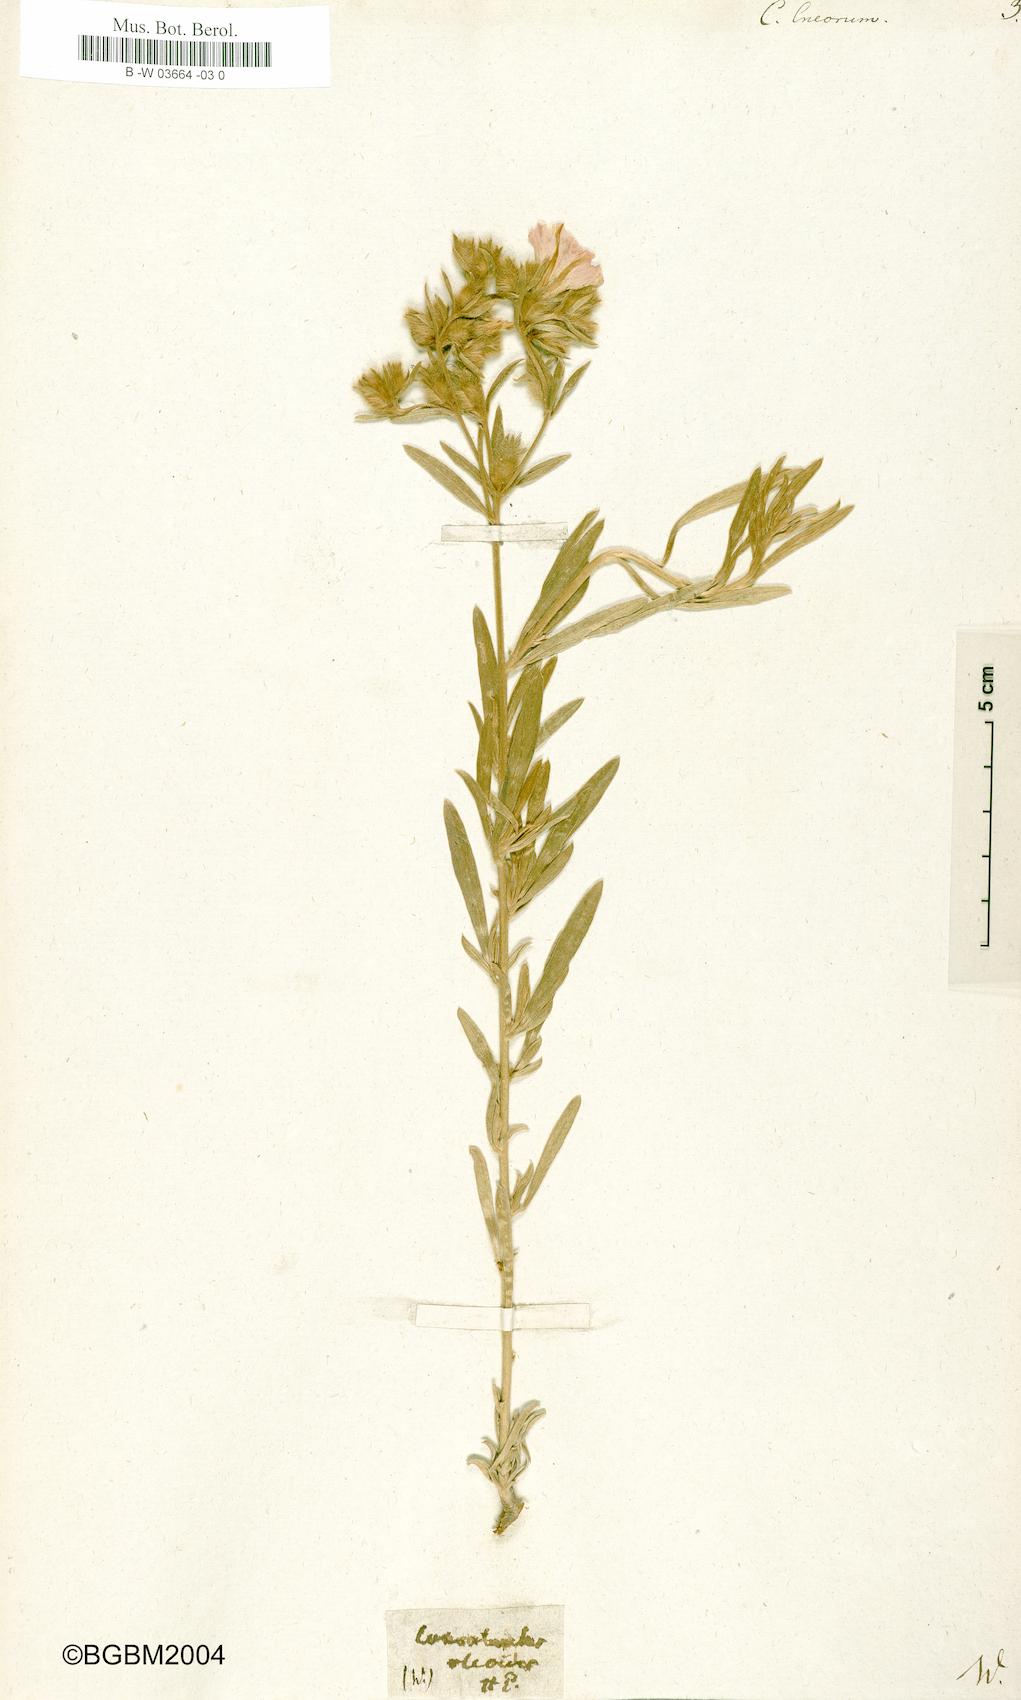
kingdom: Plantae
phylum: Tracheophyta
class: Magnoliopsida
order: Solanales
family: Convolvulaceae
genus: Convolvulus
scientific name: Convolvulus cneorum
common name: Silverbush
